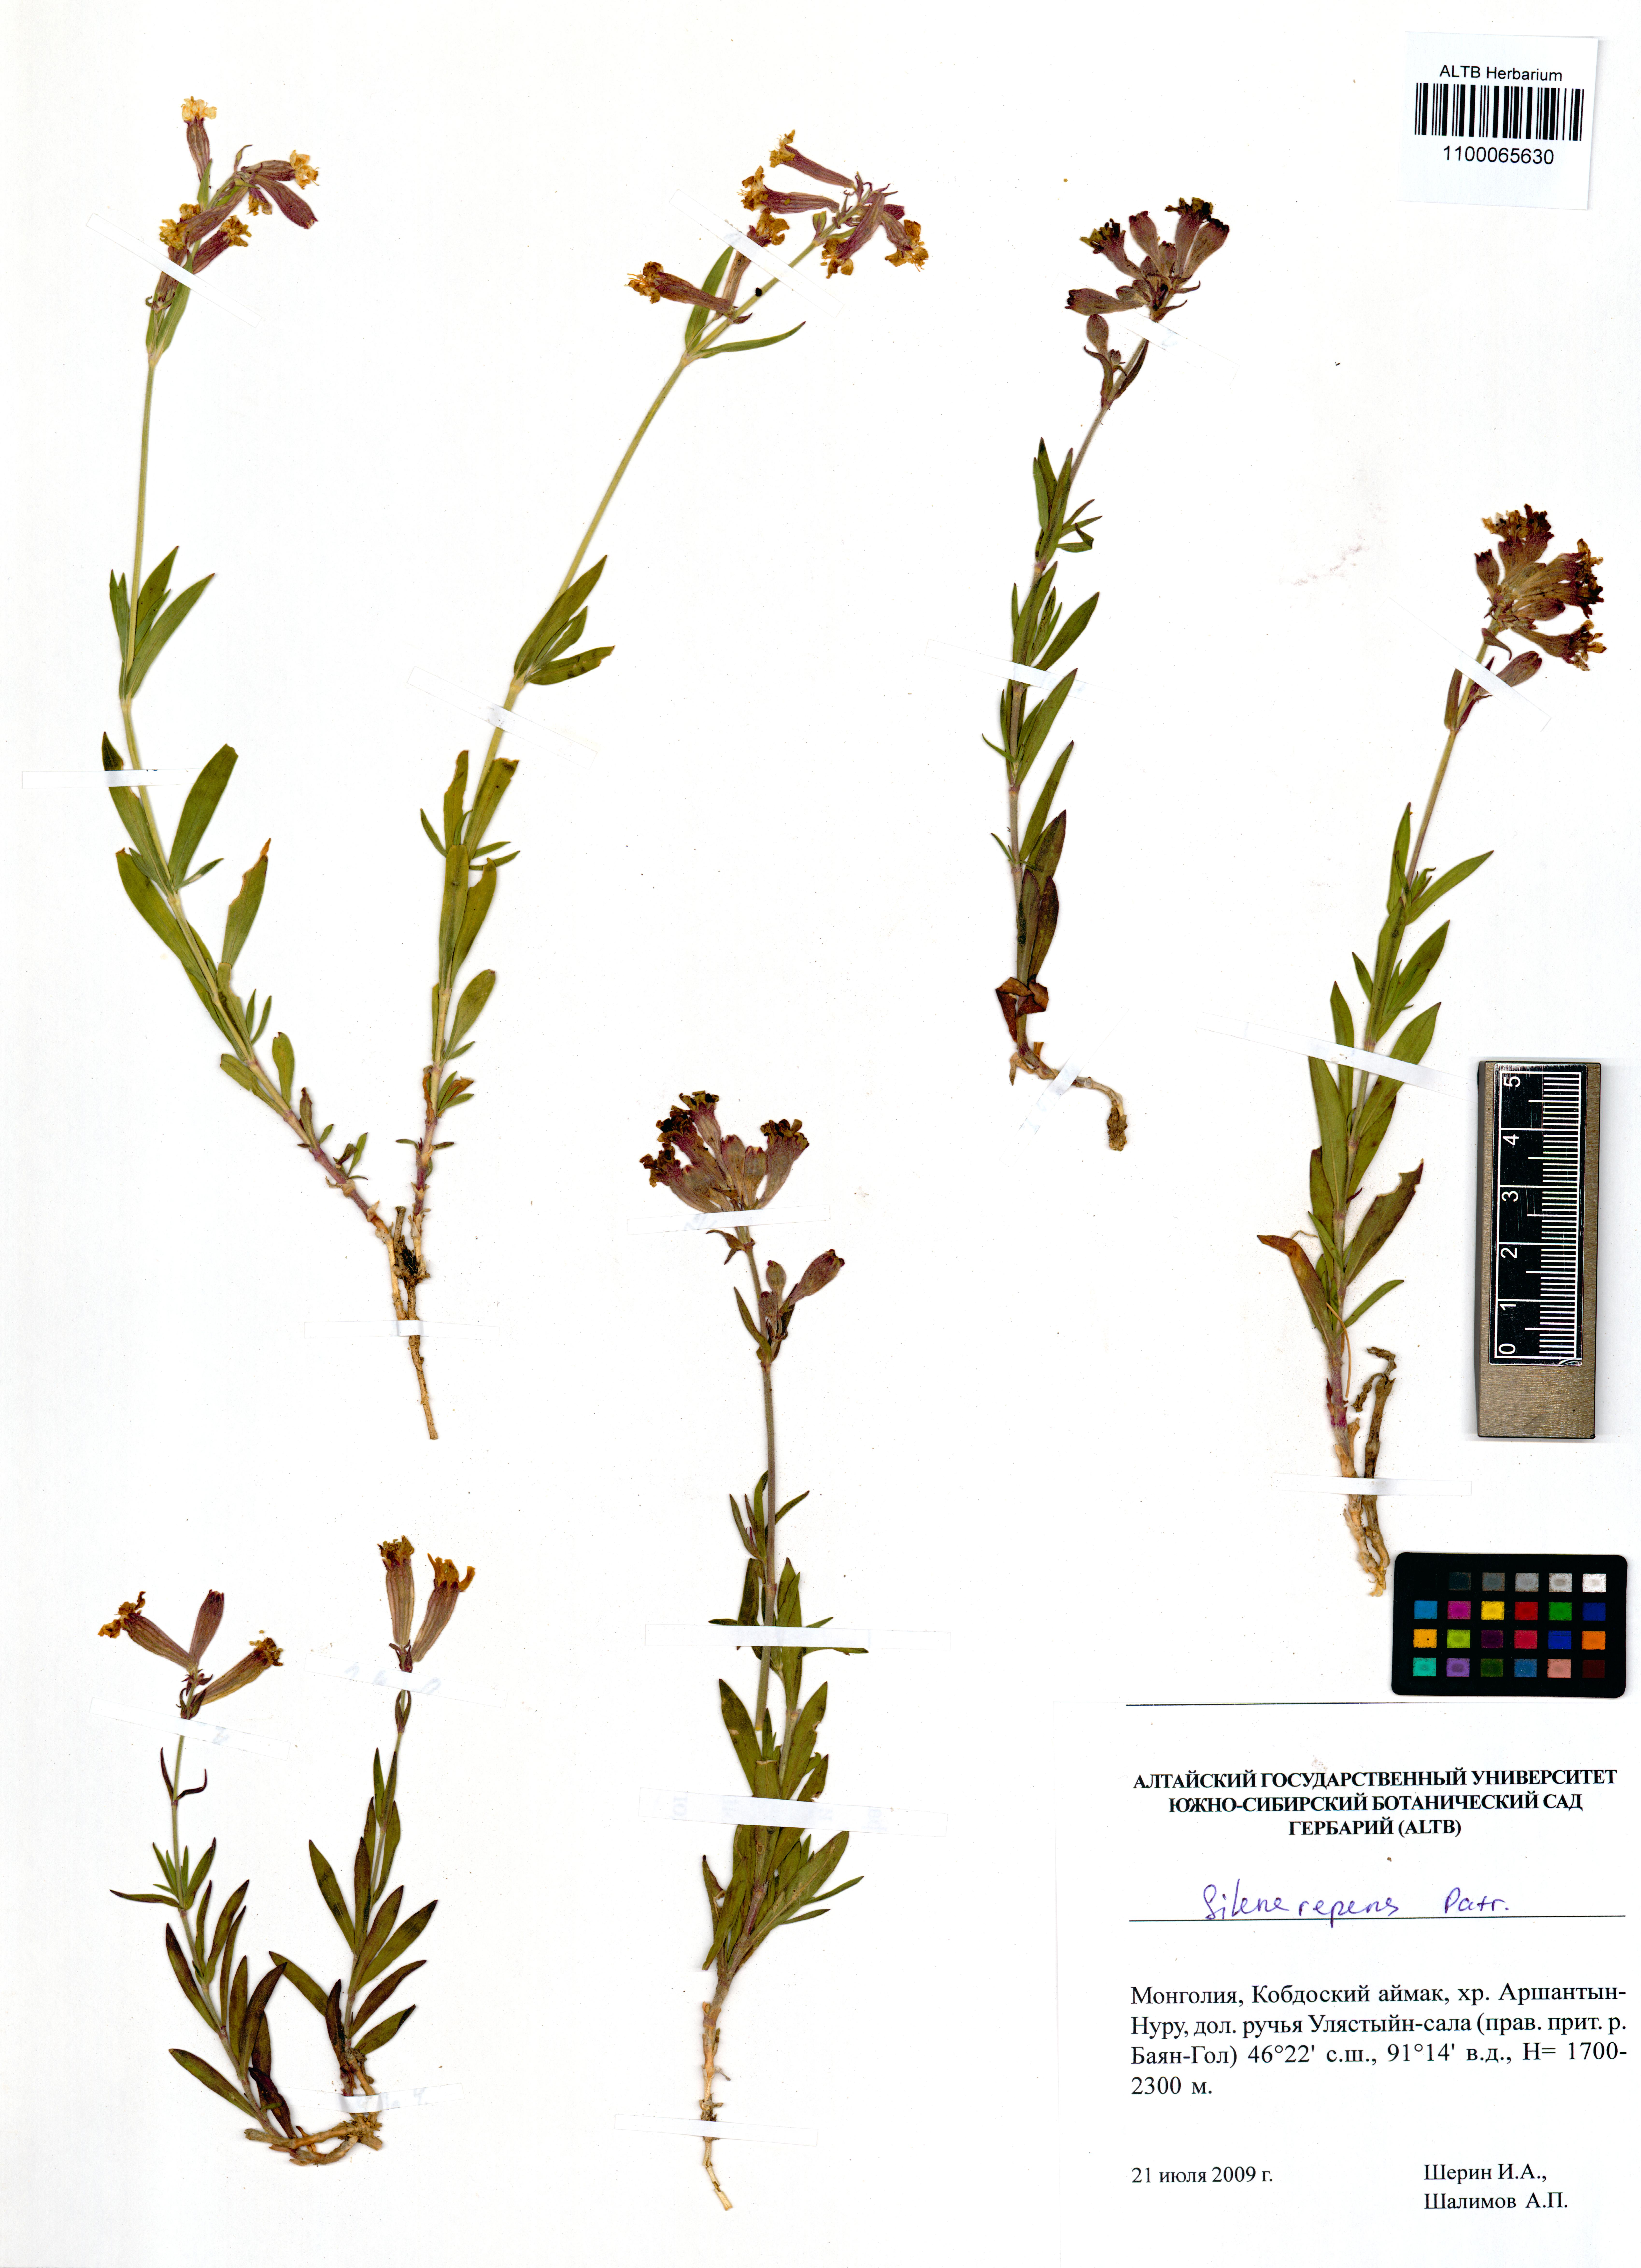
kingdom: Plantae
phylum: Tracheophyta
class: Magnoliopsida
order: Caryophyllales
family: Caryophyllaceae
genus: Silene
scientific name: Silene repens
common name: Pink campion
